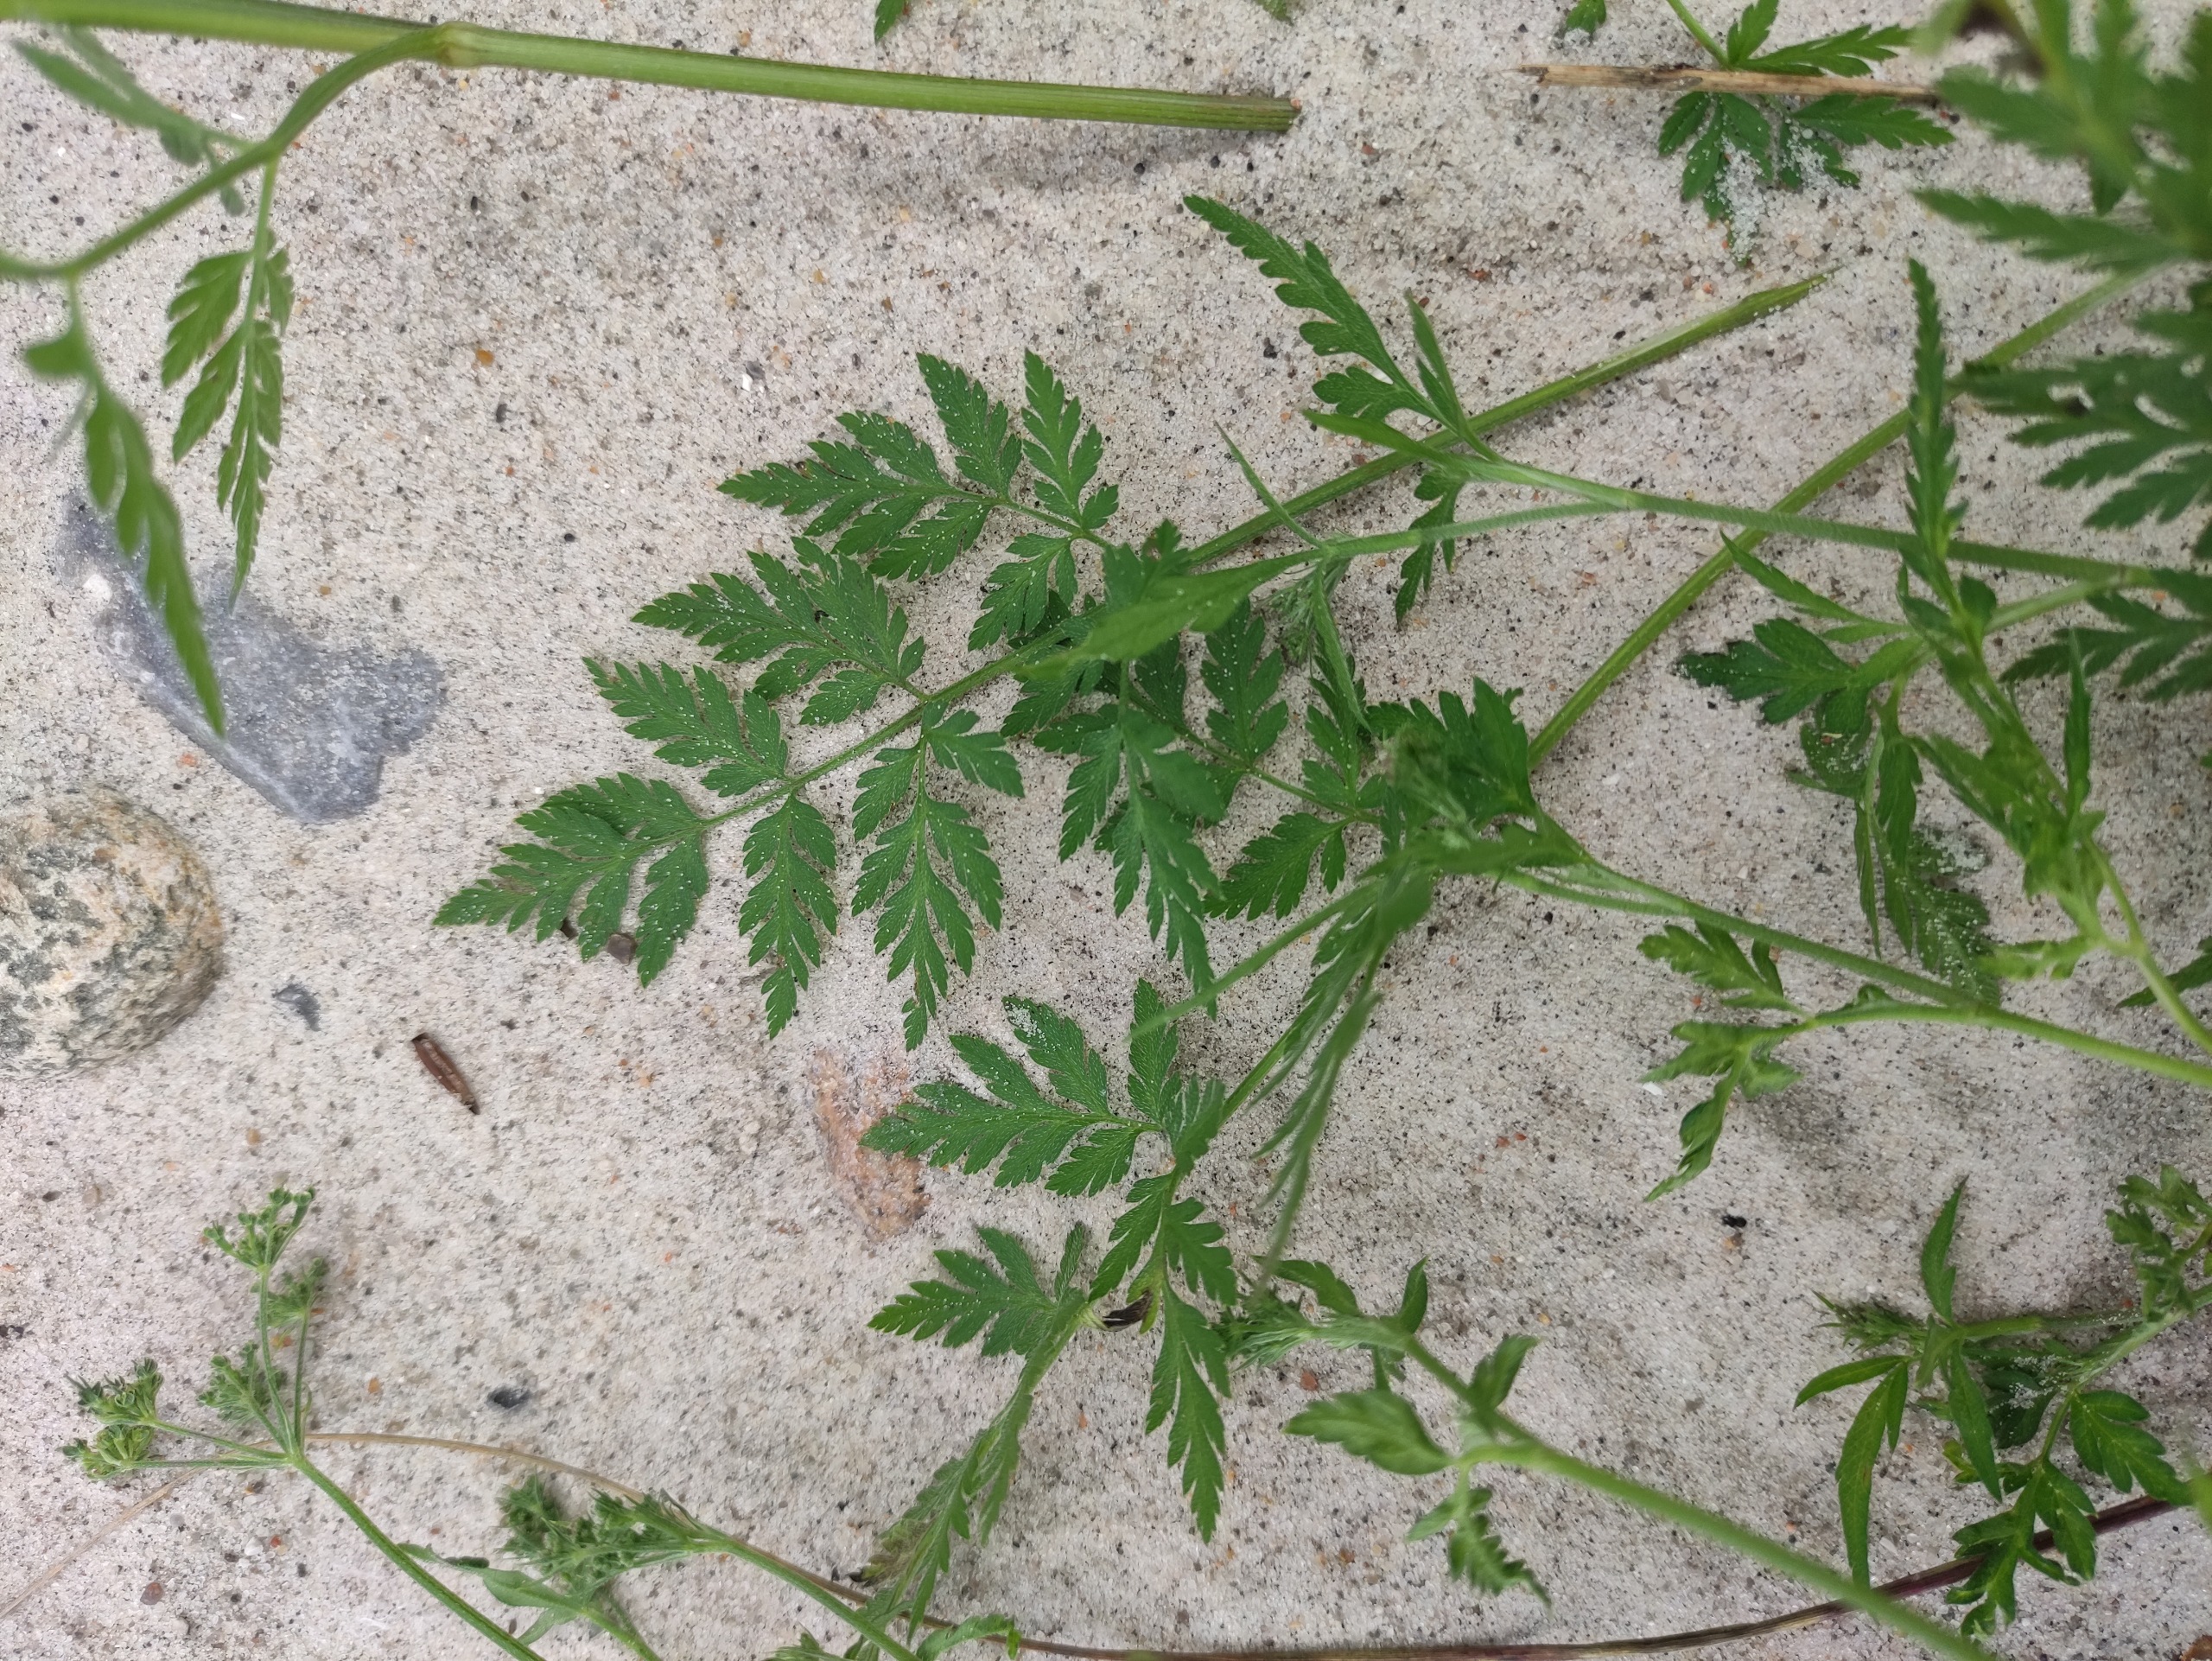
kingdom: Plantae
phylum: Tracheophyta
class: Magnoliopsida
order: Apiales
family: Apiaceae
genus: Torilis
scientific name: Torilis japonica
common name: Hvas randfrø
